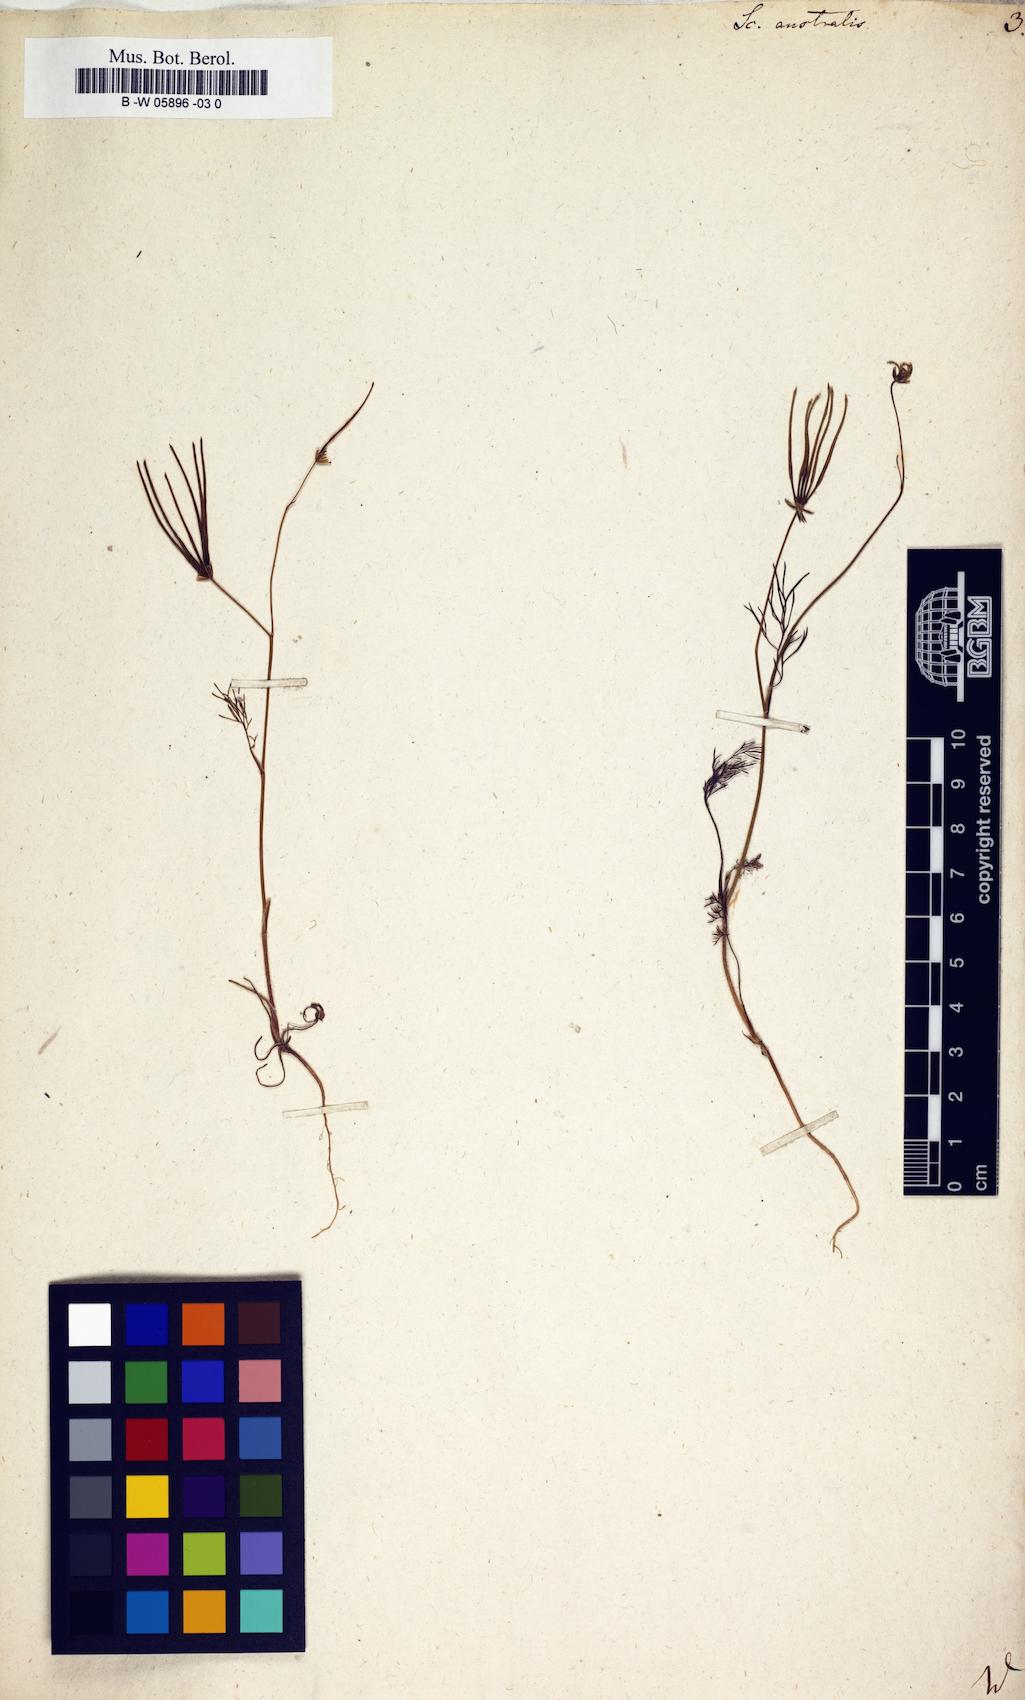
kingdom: Plantae
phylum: Tracheophyta
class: Magnoliopsida
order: Apiales
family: Apiaceae
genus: Scandix
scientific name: Scandix australis
